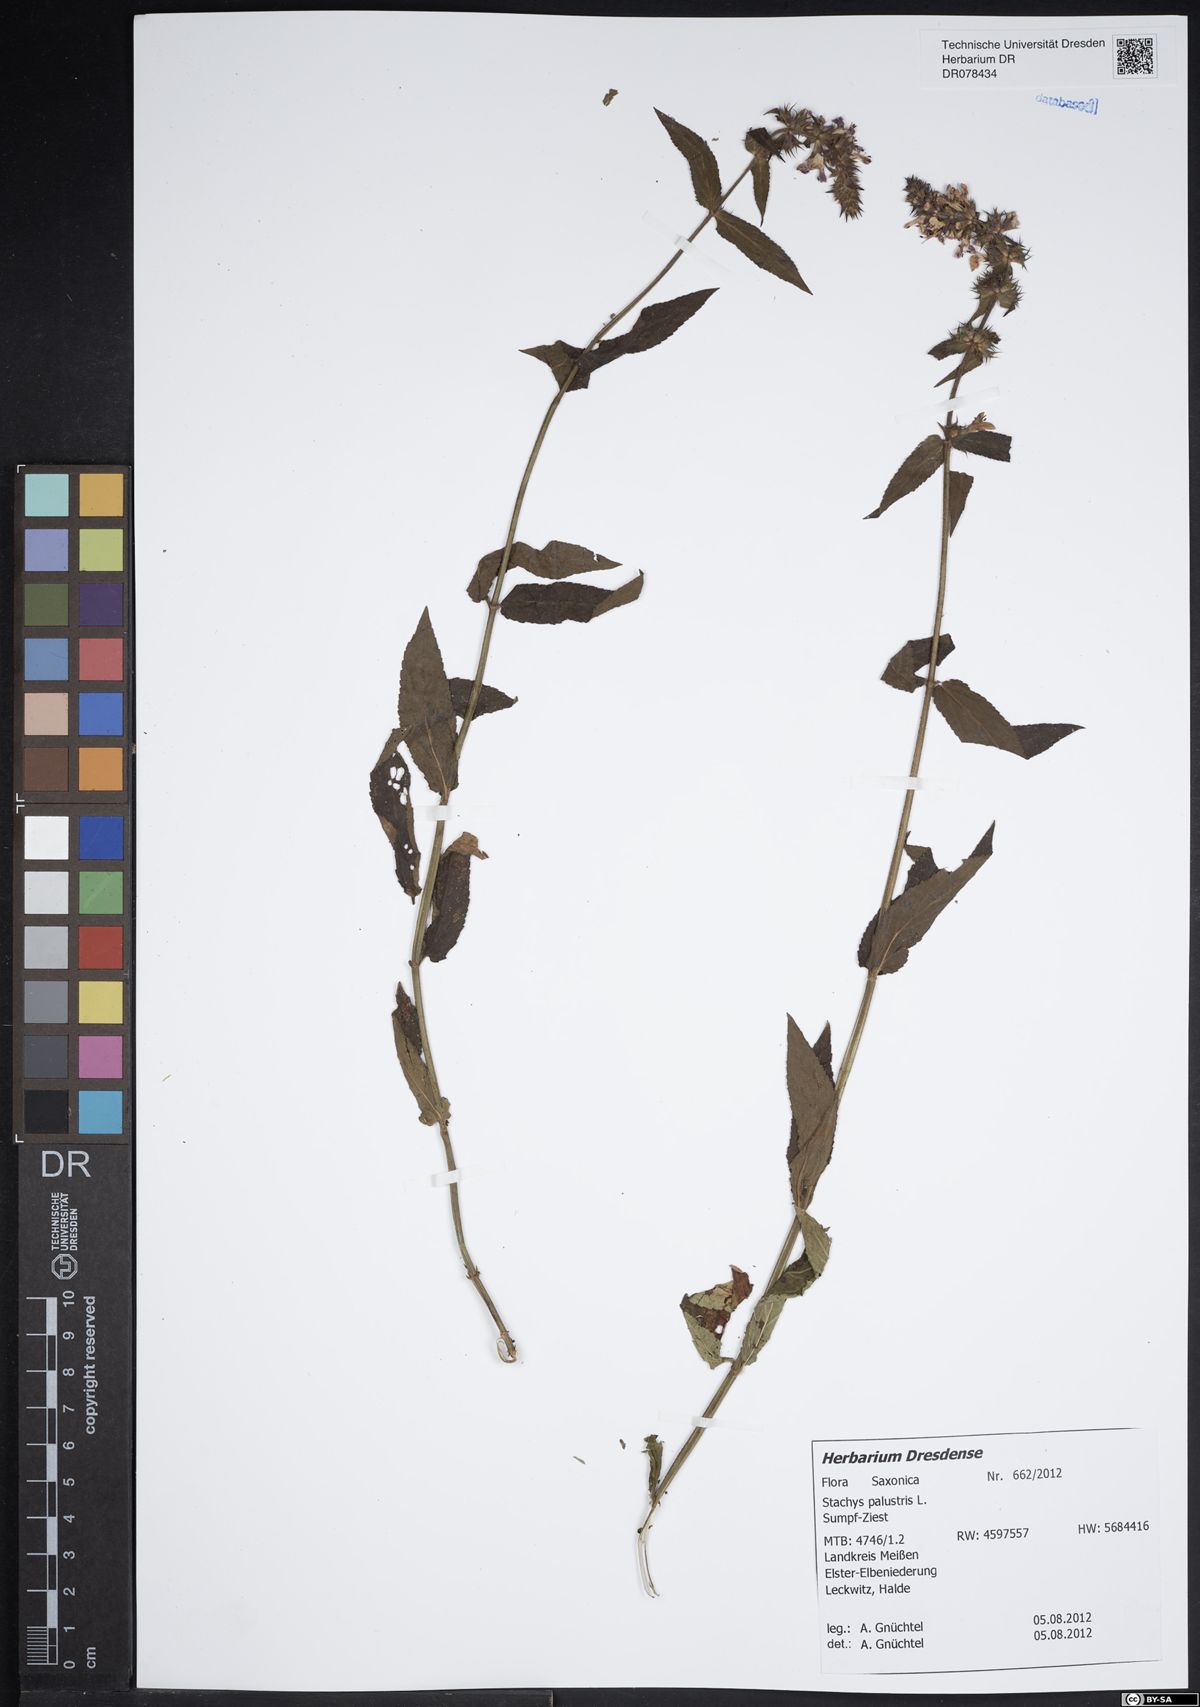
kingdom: Plantae
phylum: Tracheophyta
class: Magnoliopsida
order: Lamiales
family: Lamiaceae
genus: Stachys
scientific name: Stachys palustris
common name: Marsh woundwort
